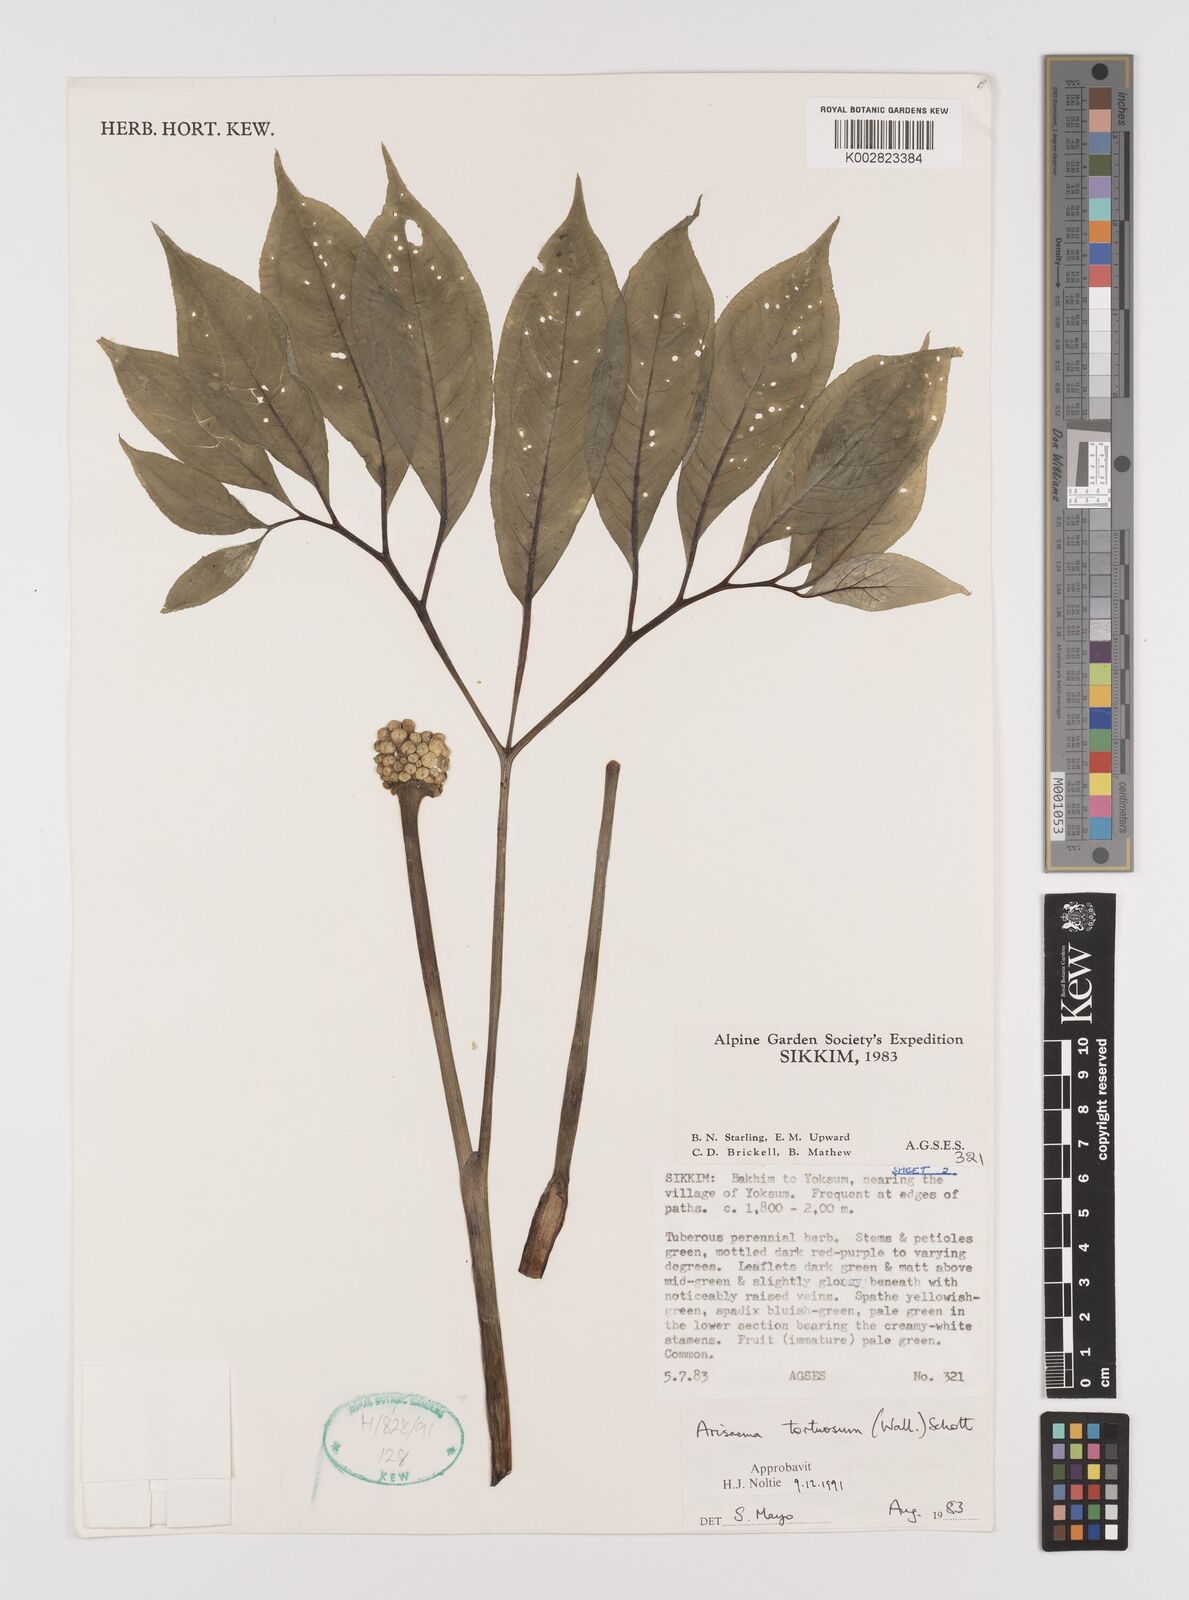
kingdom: Plantae
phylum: Tracheophyta
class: Liliopsida
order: Alismatales
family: Araceae
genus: Arisaema
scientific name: Arisaema tortuosum
